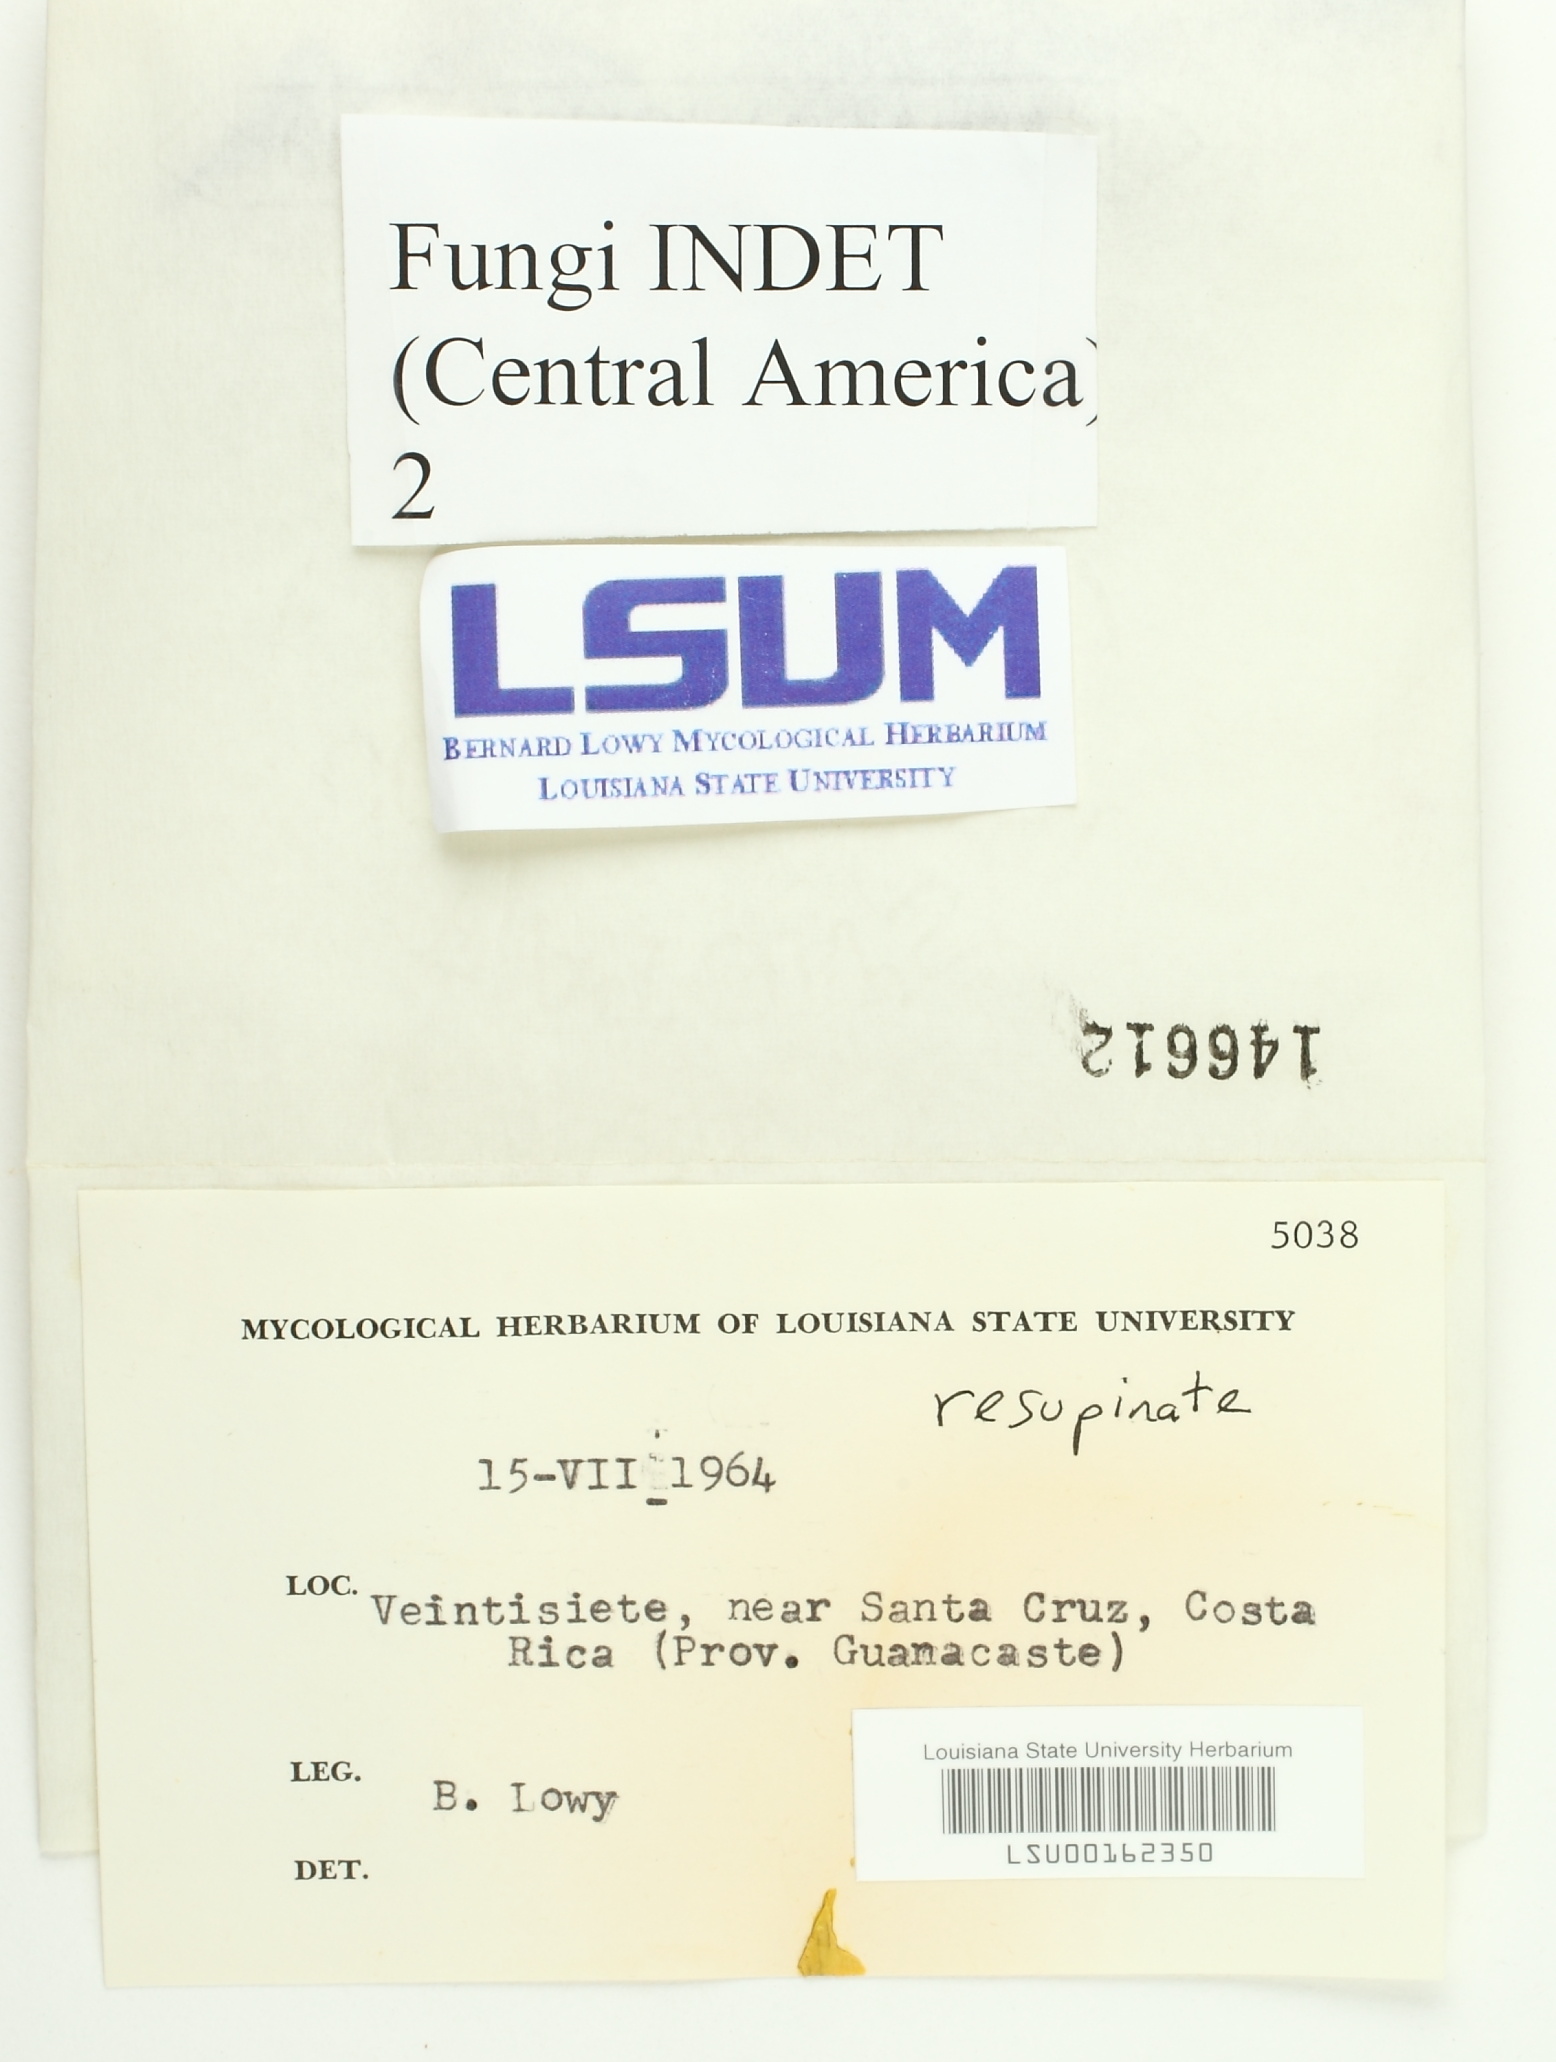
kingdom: Fungi
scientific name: Fungi
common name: Fungi
